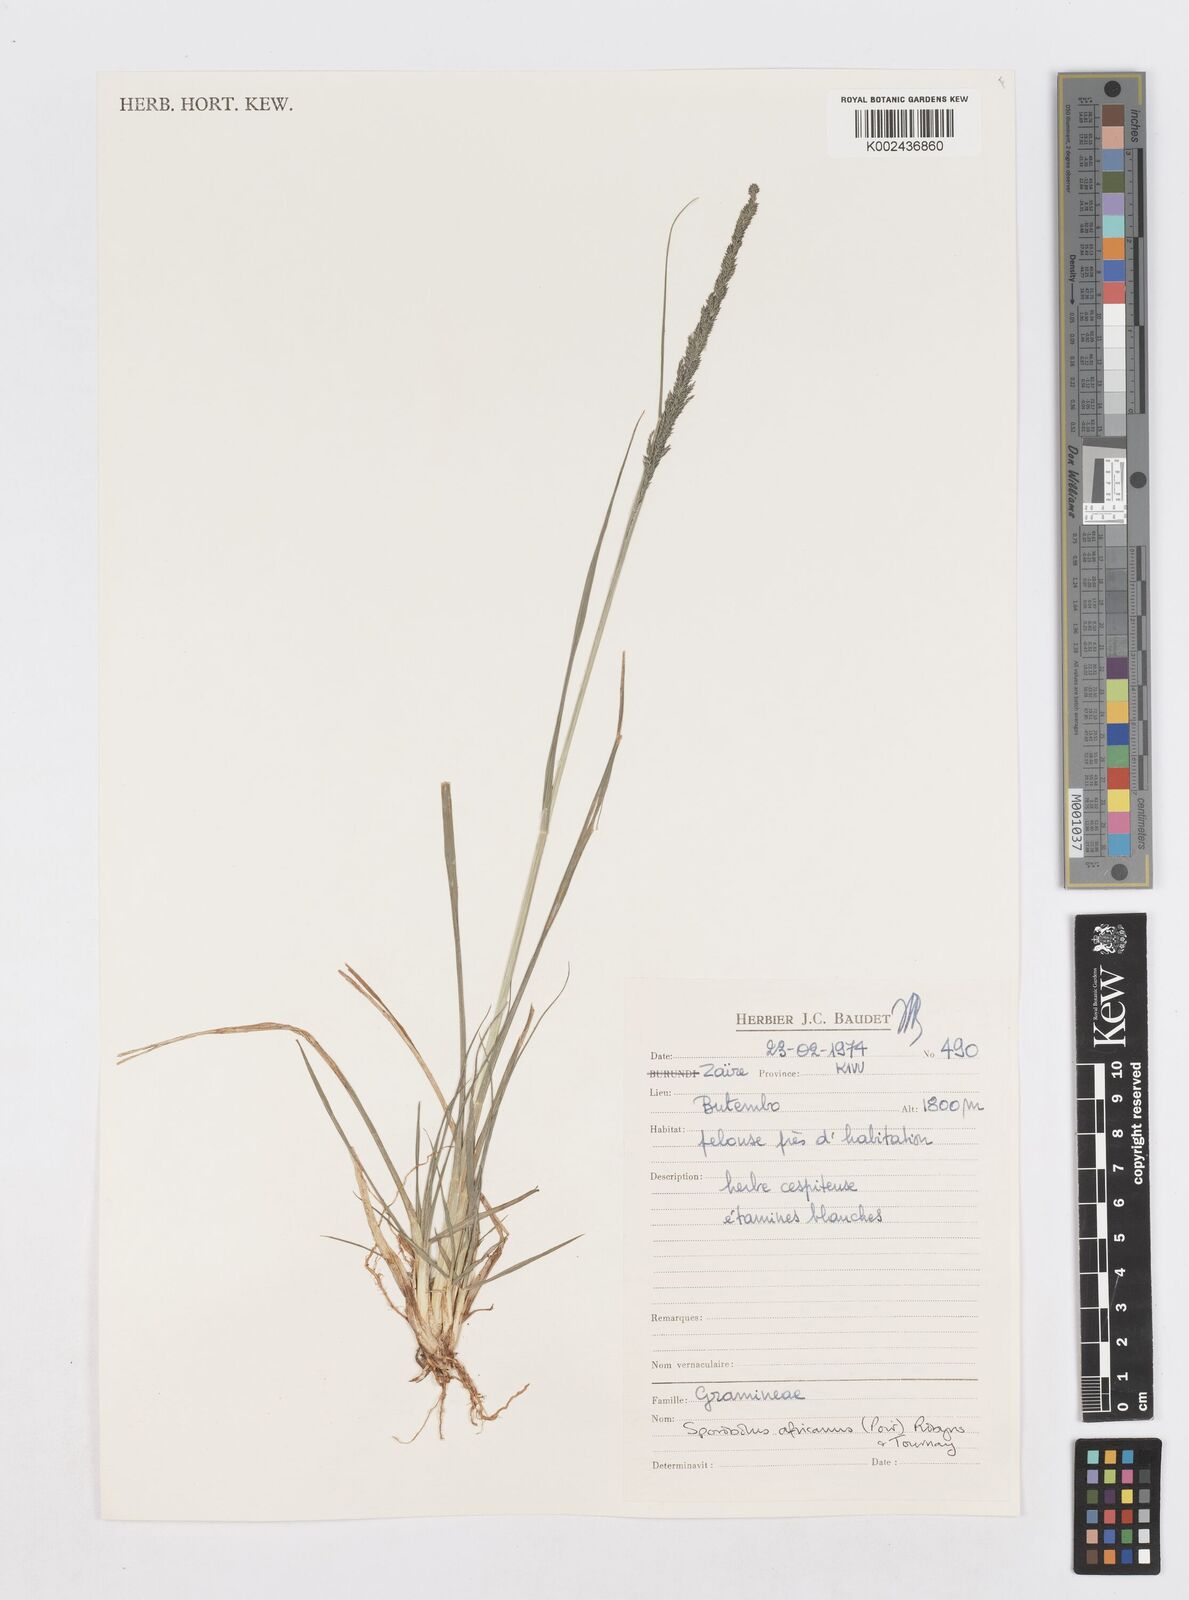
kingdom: Plantae
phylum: Tracheophyta
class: Liliopsida
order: Poales
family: Poaceae
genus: Sporobolus
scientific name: Sporobolus africanus
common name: African dropseed
